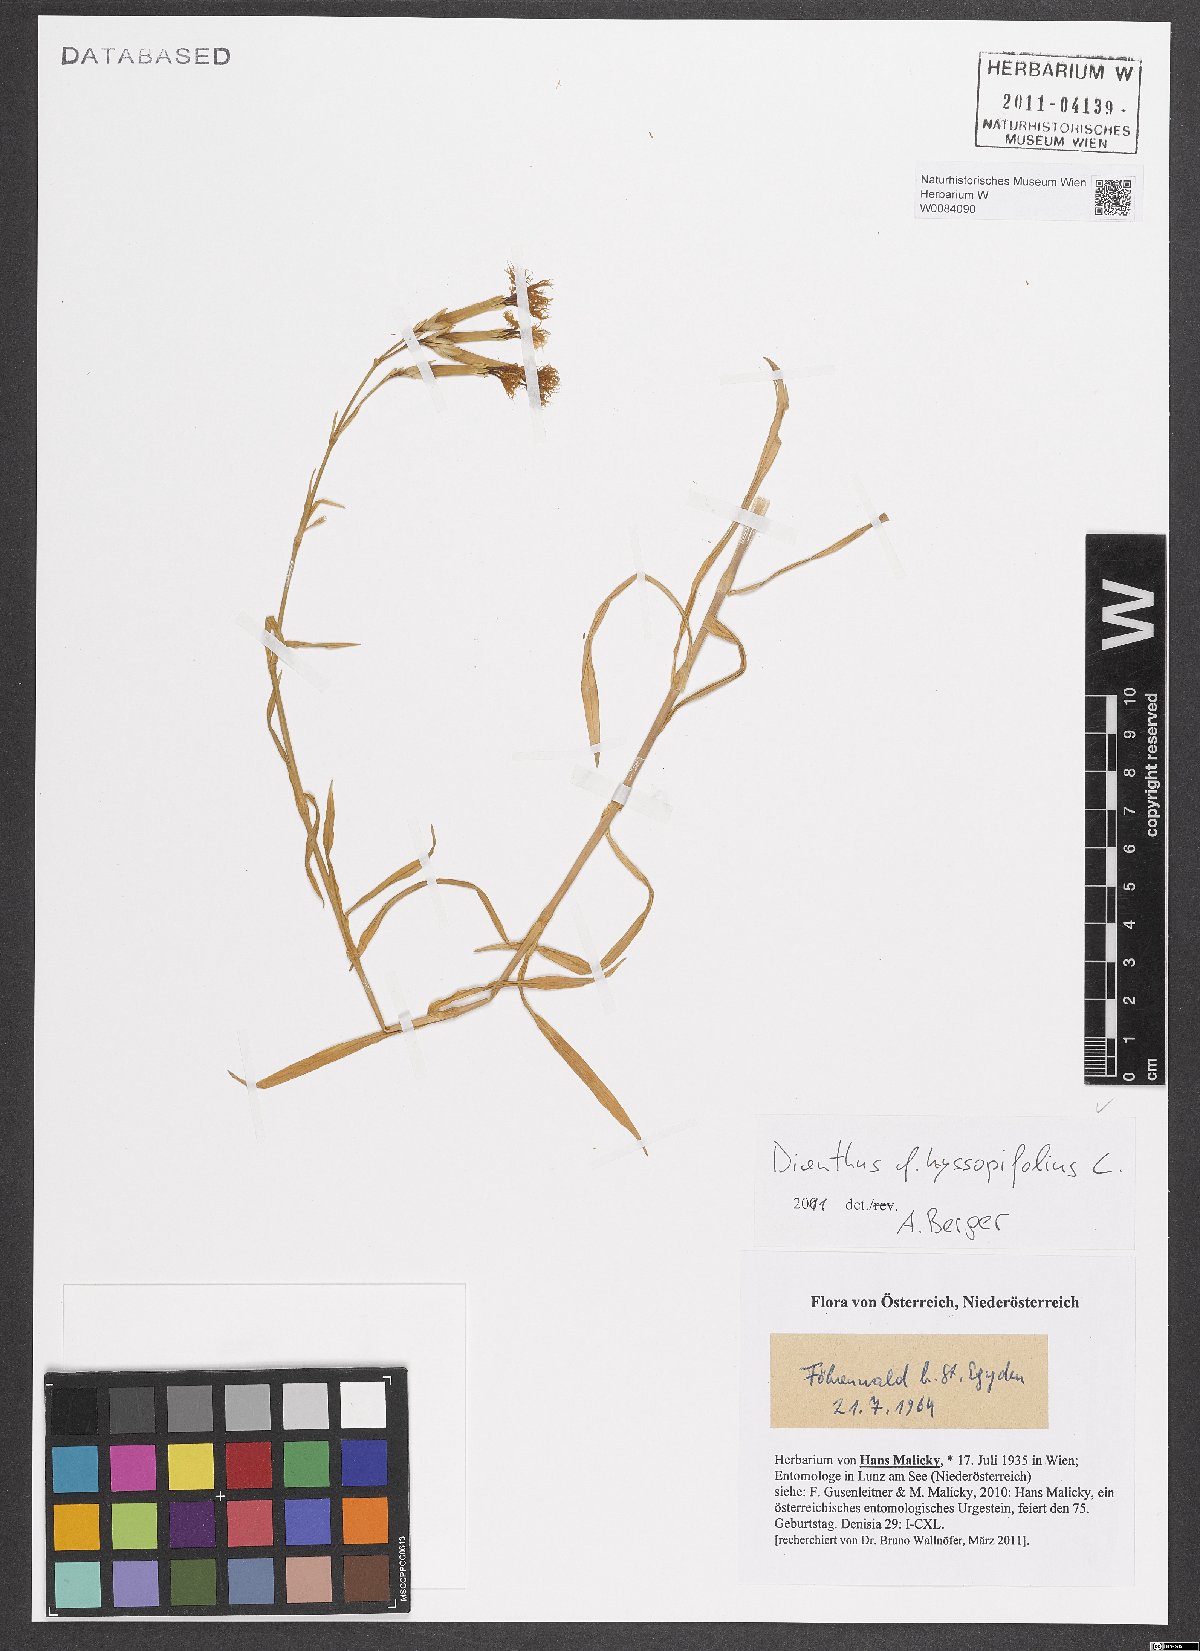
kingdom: Plantae
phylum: Tracheophyta
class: Magnoliopsida
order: Caryophyllales
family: Caryophyllaceae
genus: Dianthus
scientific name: Dianthus hyssopifolius
